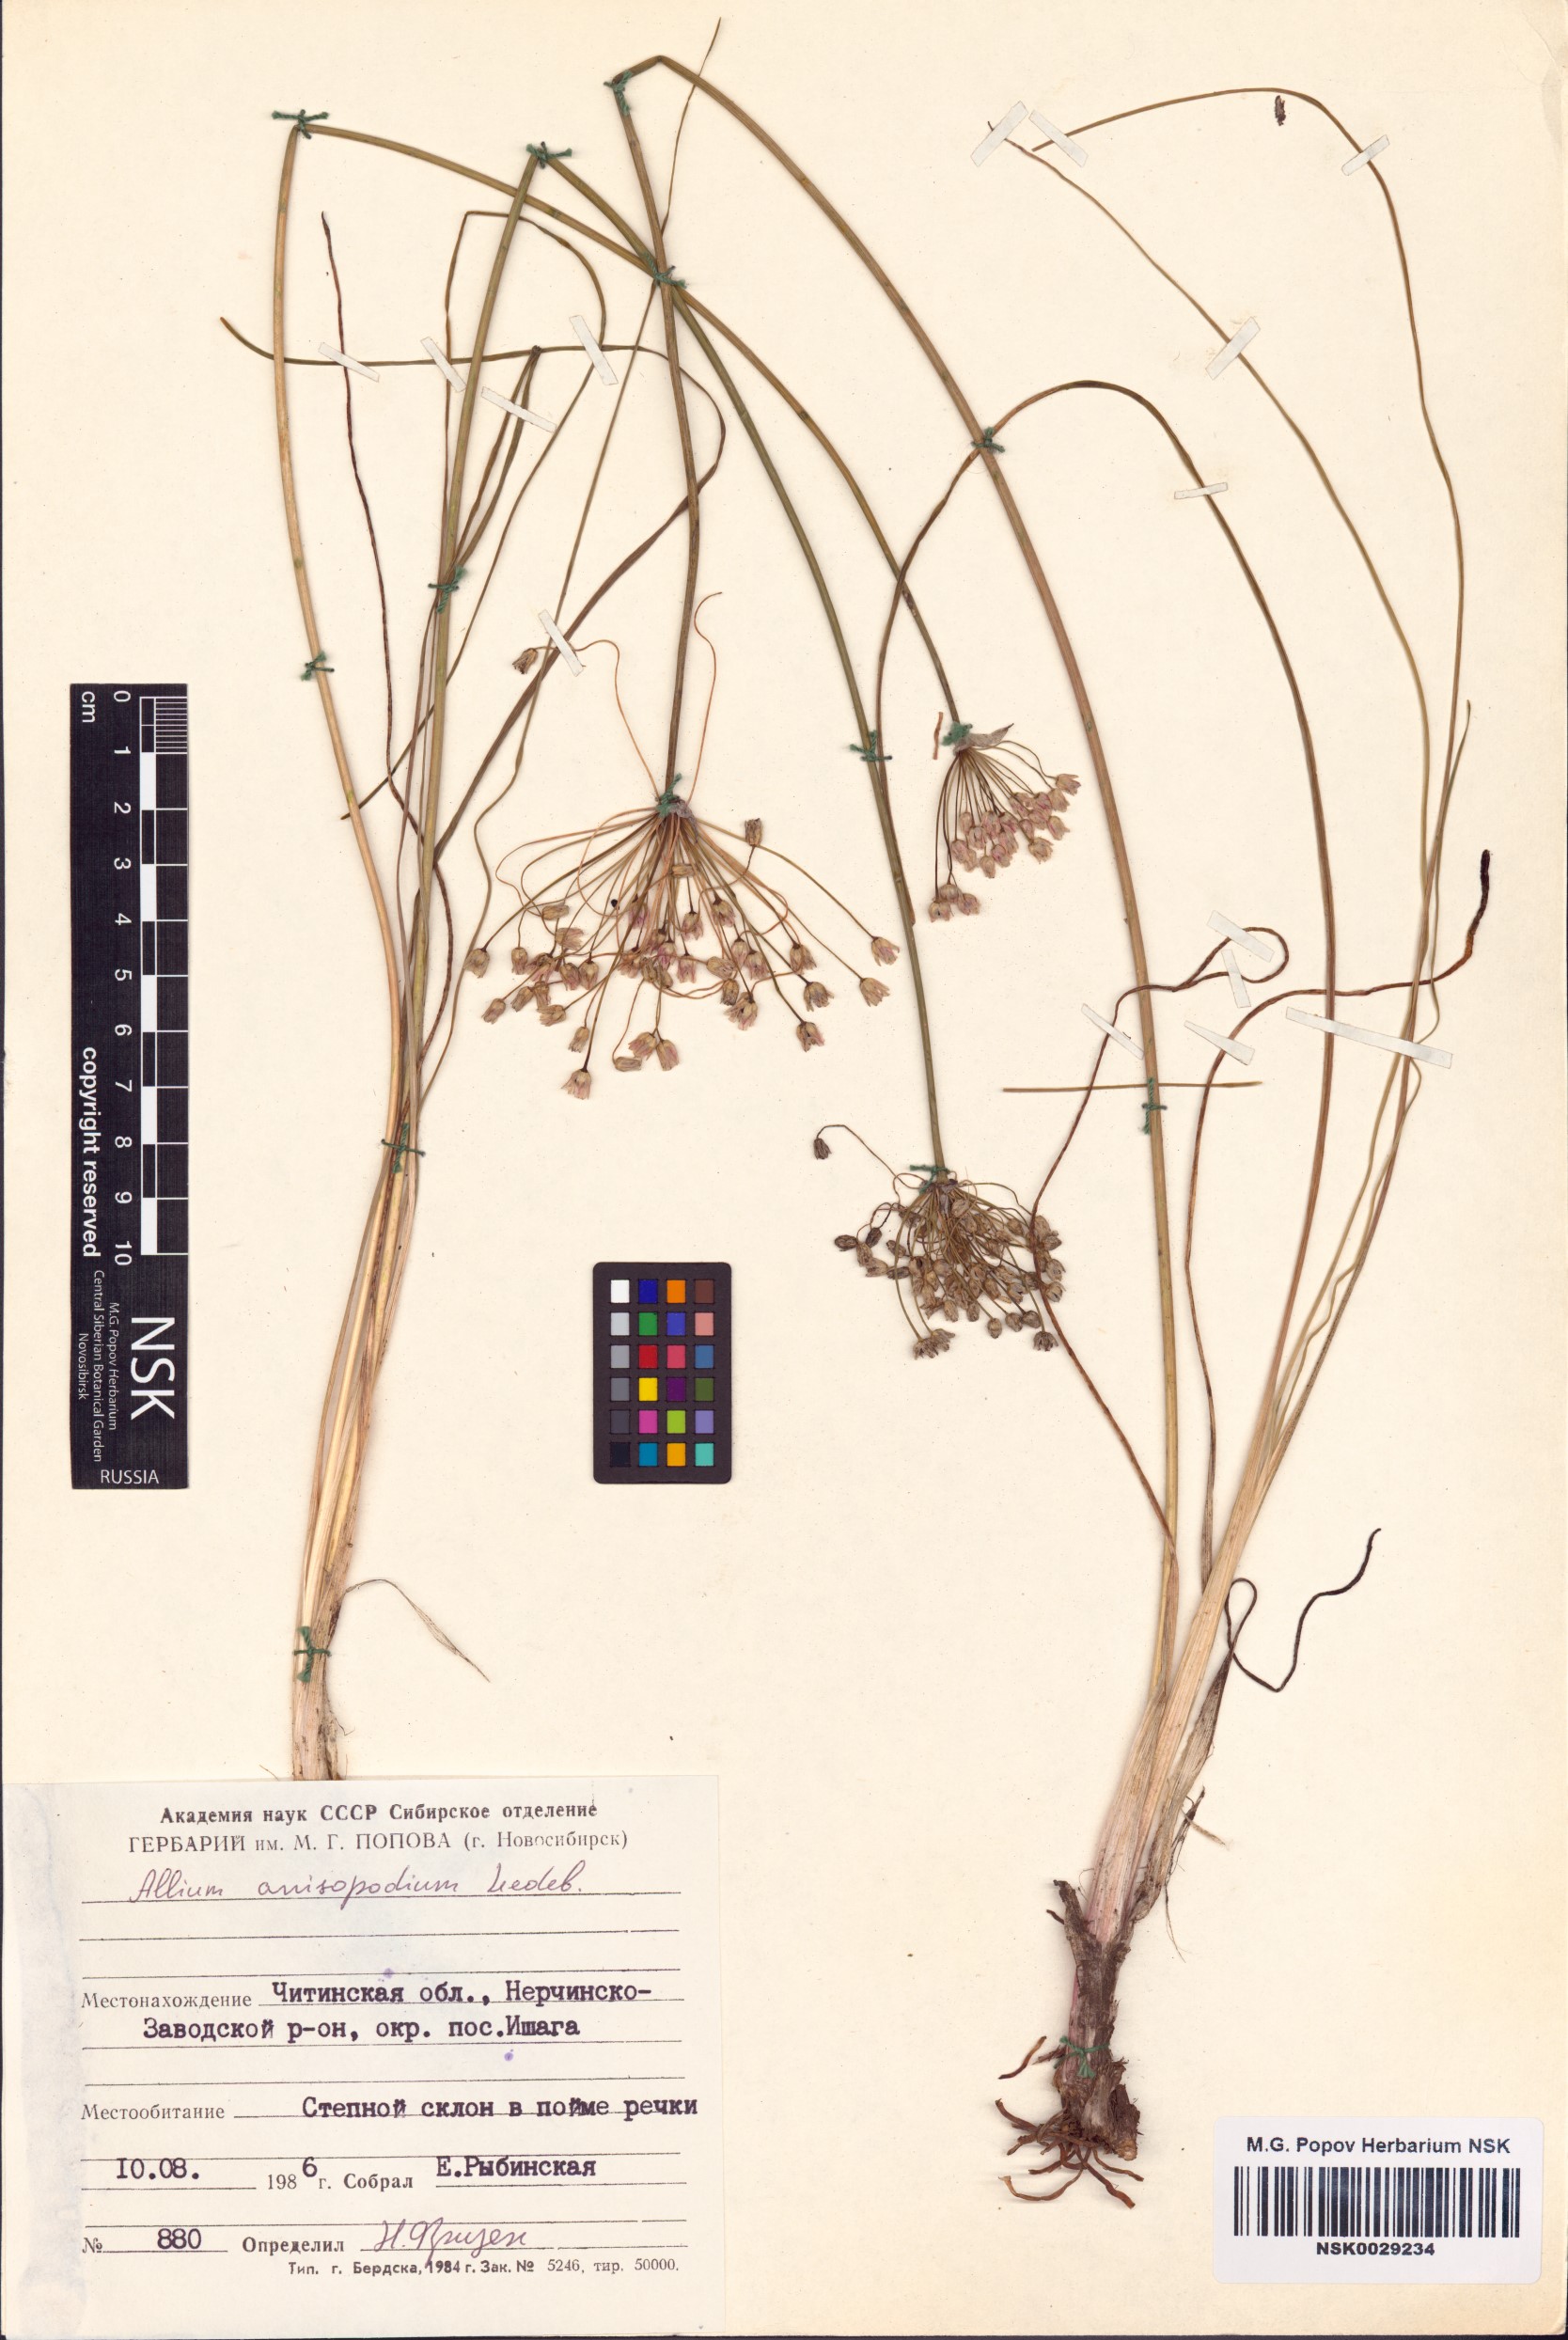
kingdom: Plantae
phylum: Tracheophyta
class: Liliopsida
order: Asparagales
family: Amaryllidaceae
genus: Allium
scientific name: Allium anisopodium
